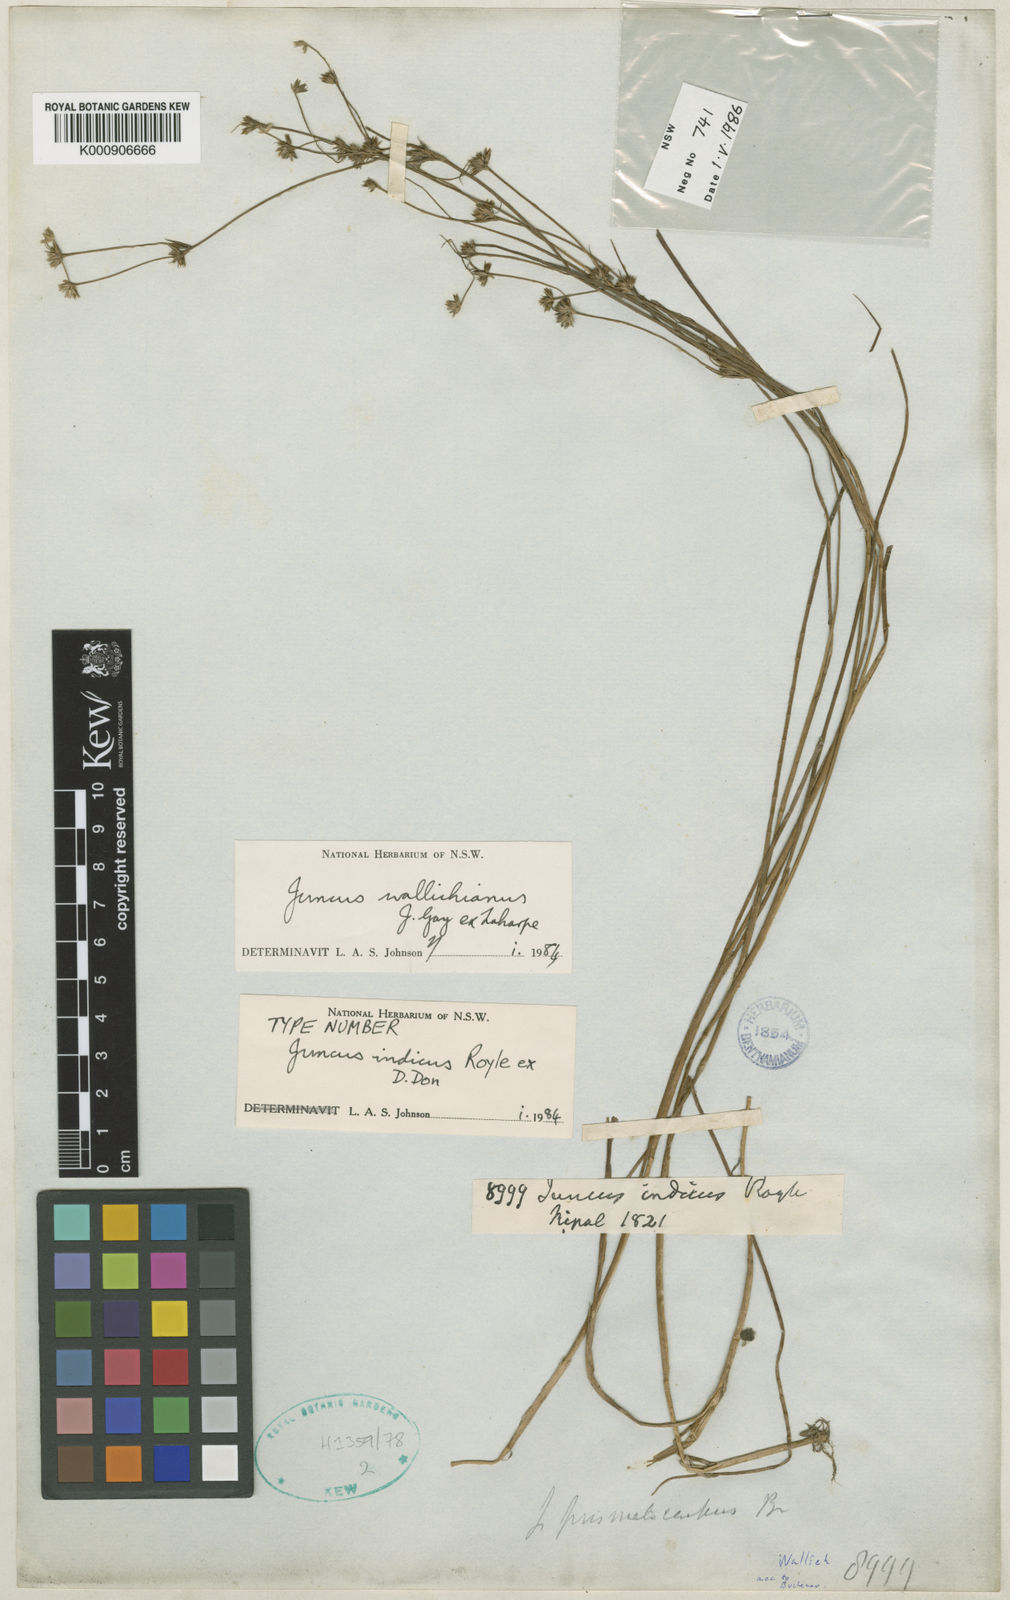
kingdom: Plantae
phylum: Tracheophyta
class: Liliopsida
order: Poales
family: Juncaceae
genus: Juncus
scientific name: Juncus prismatocarpus
